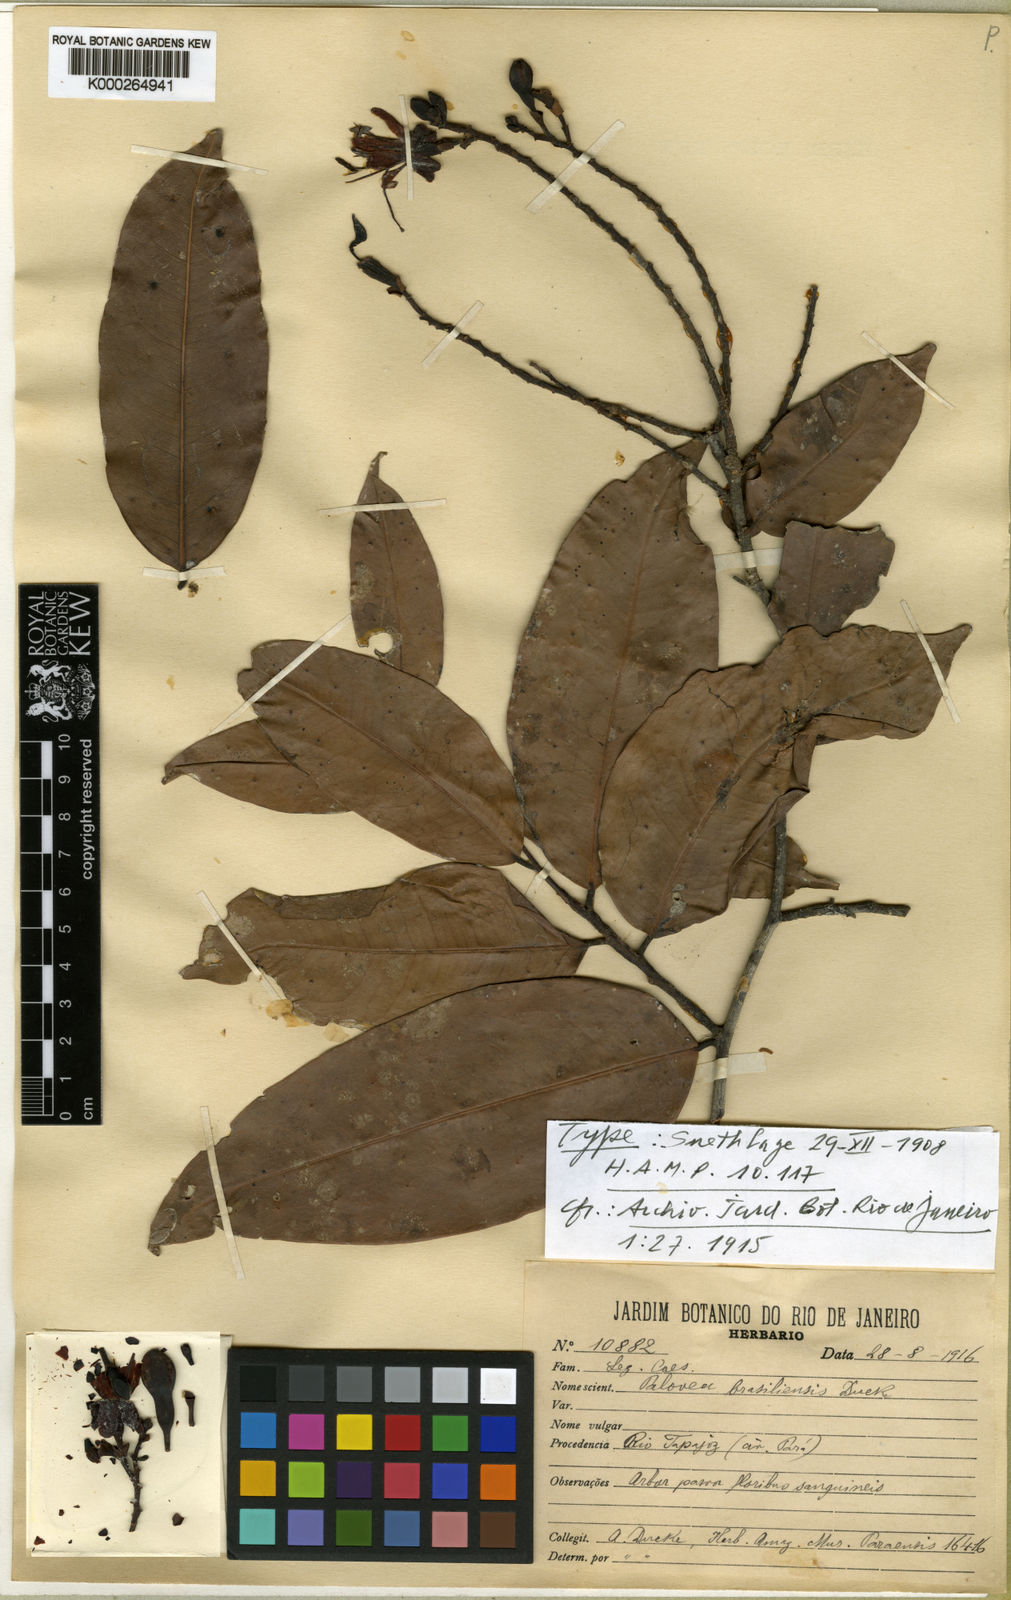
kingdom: Plantae
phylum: Tracheophyta
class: Magnoliopsida
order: Fabales
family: Fabaceae
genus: Paloue
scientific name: Paloue brasiliensis
